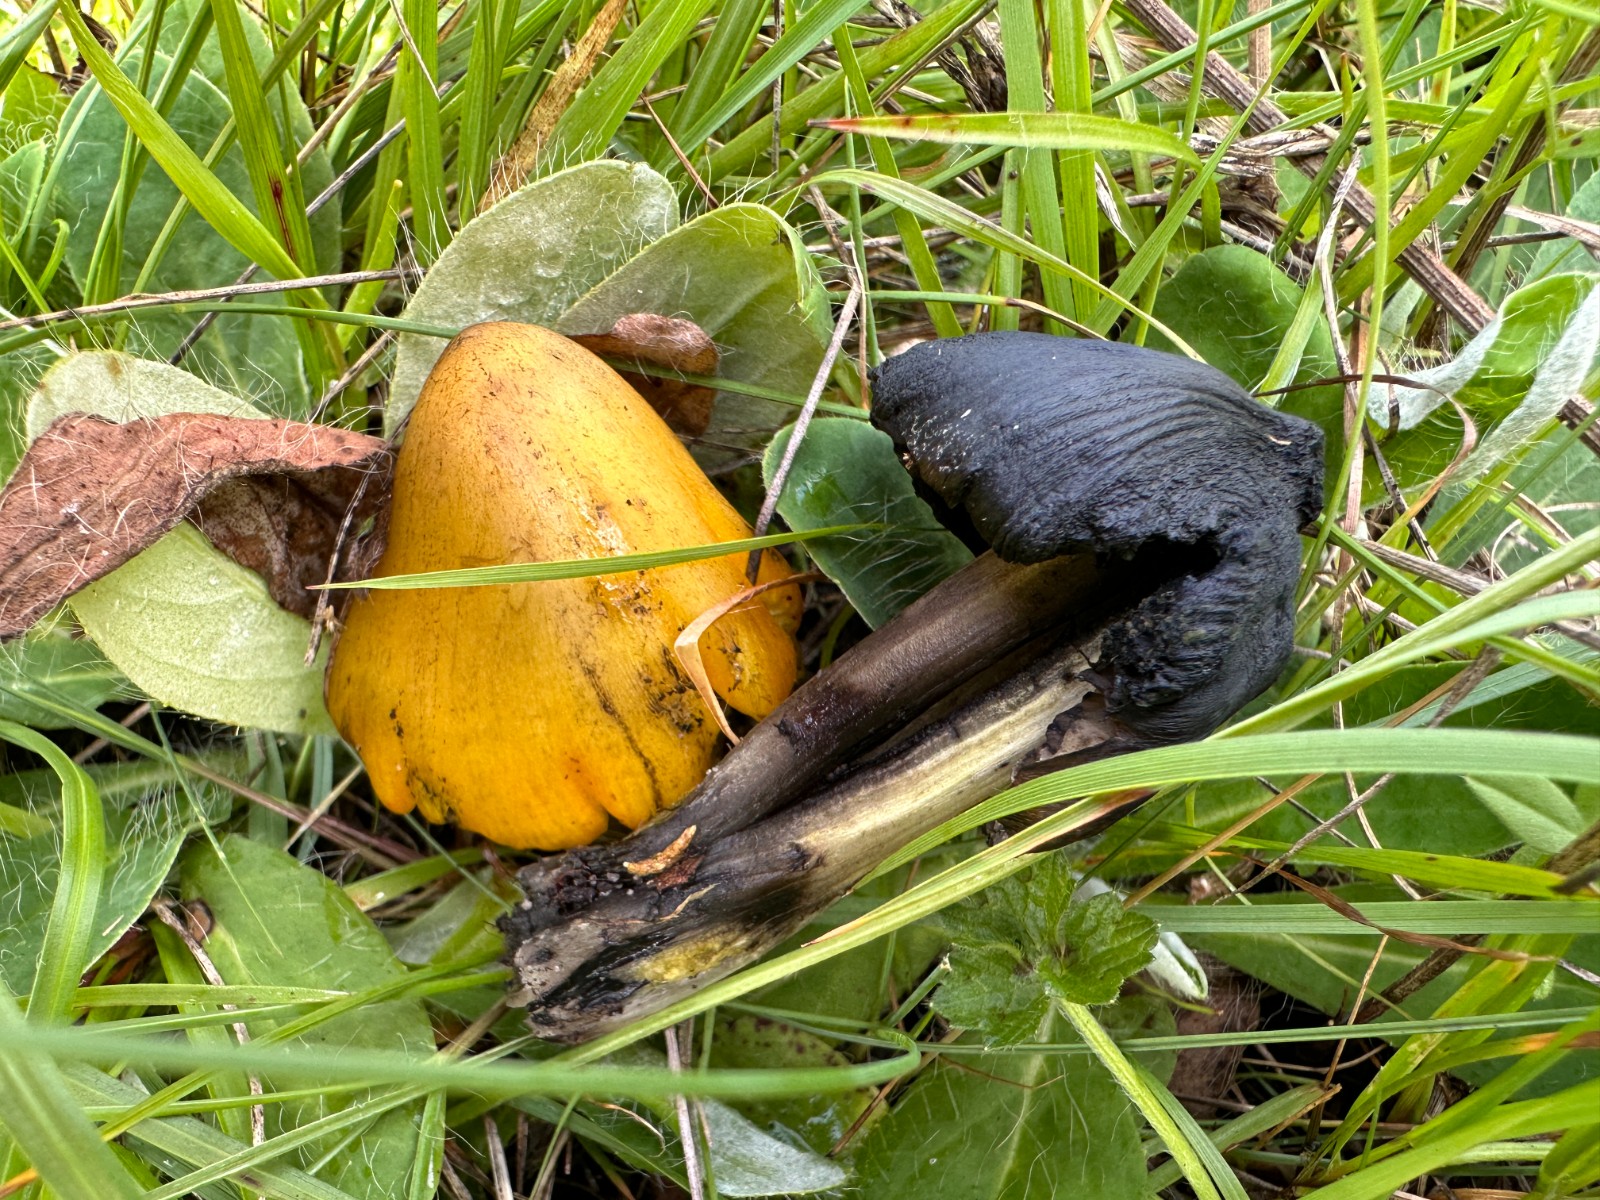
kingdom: Fungi
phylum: Basidiomycota
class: Agaricomycetes
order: Agaricales
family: Hygrophoraceae
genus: Hygrocybe
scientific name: Hygrocybe conica
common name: kegle-vokshat
